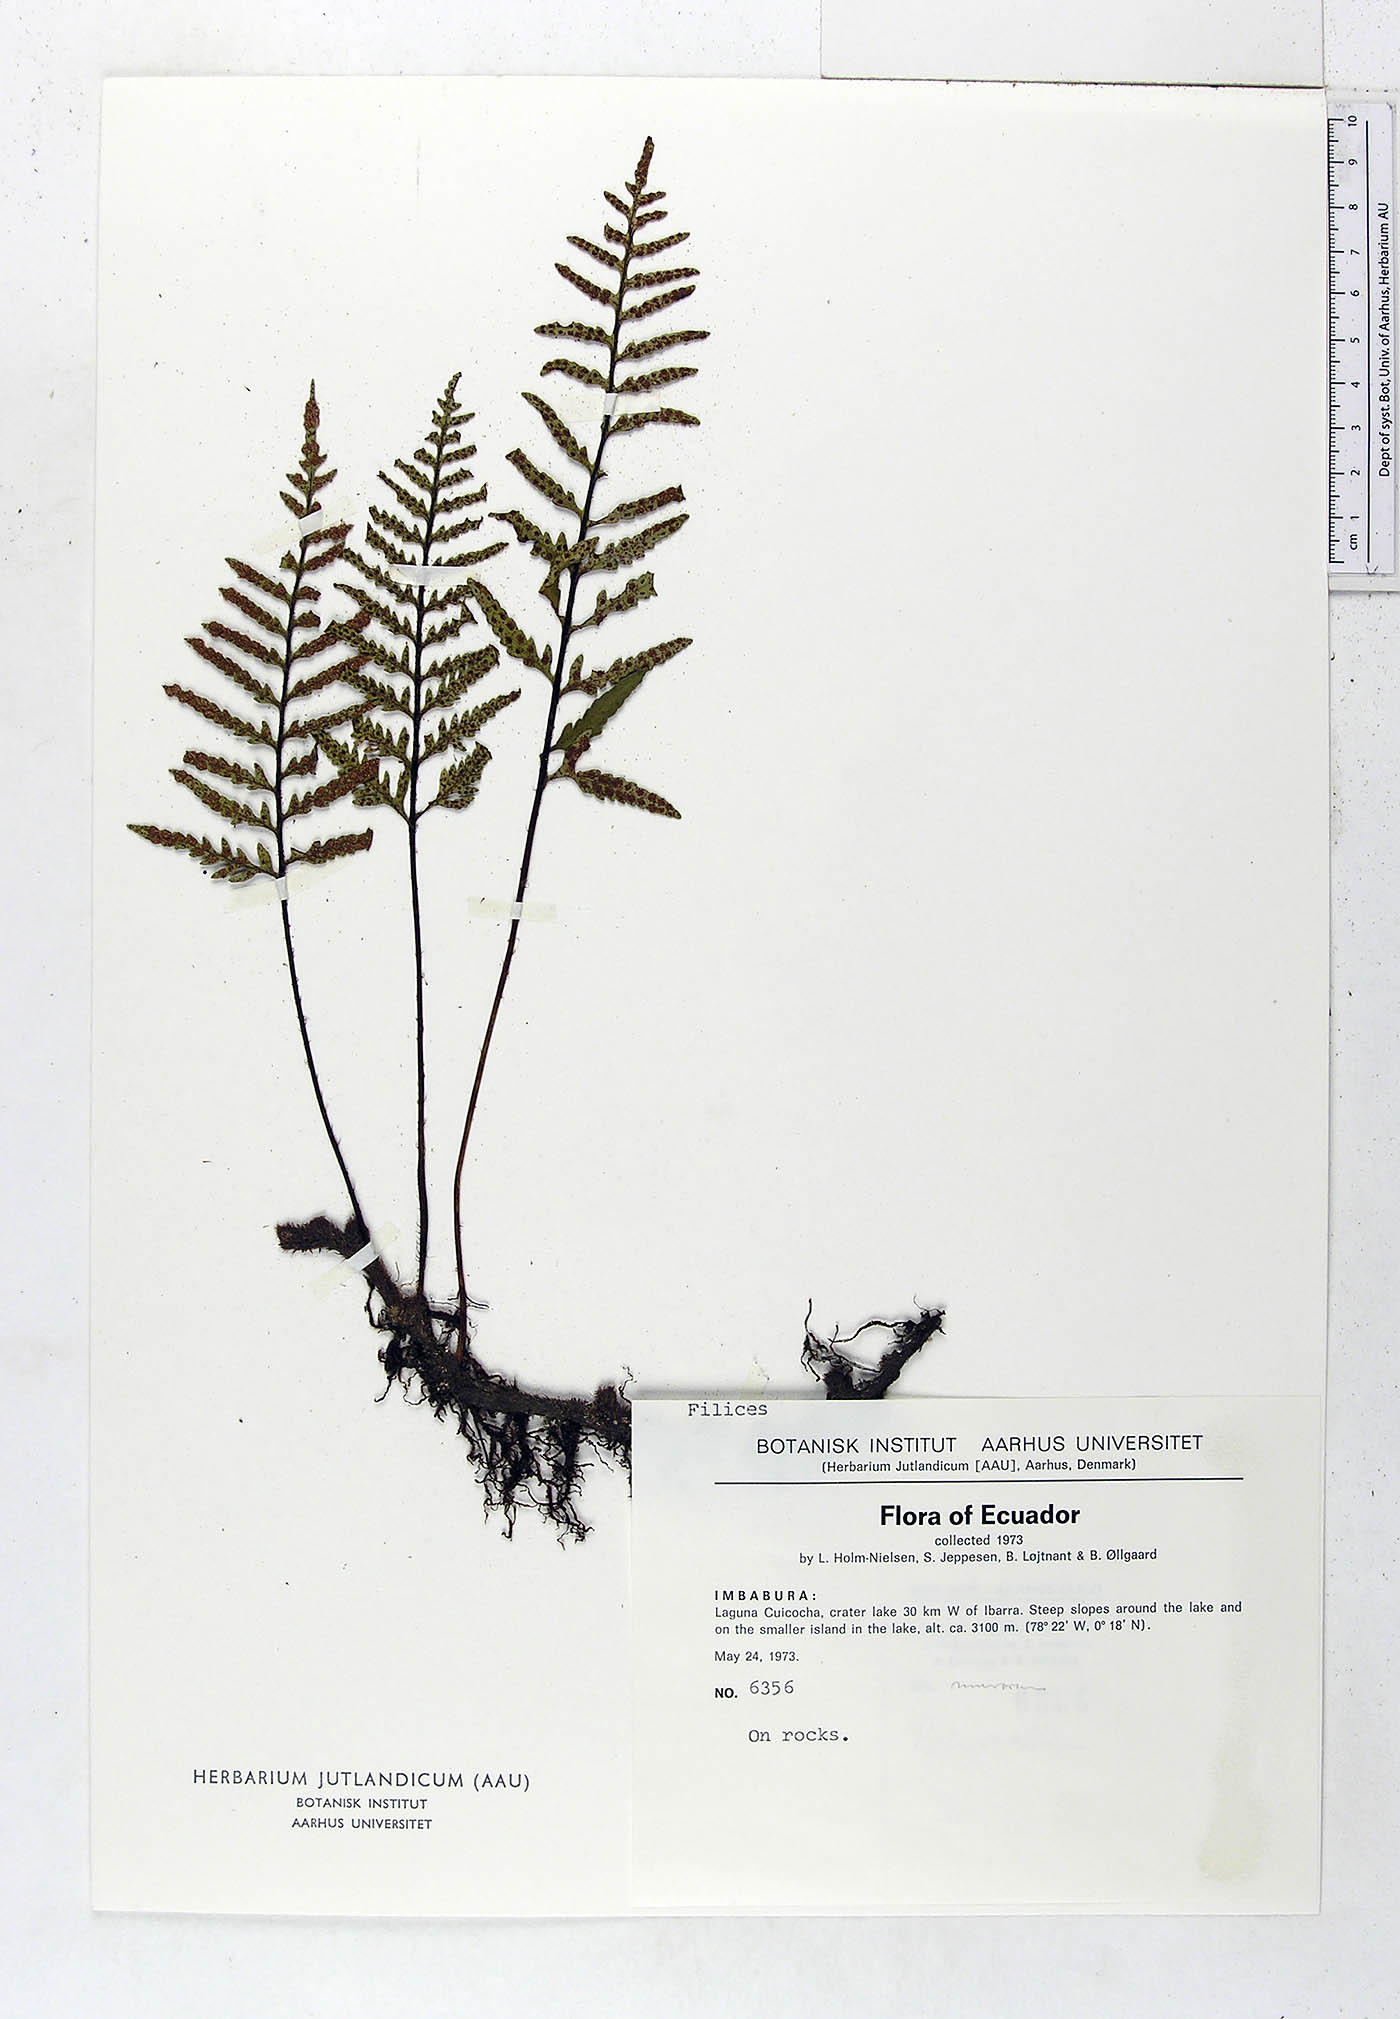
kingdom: Plantae
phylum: Tracheophyta
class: Polypodiopsida
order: Polypodiales
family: Polypodiaceae
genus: Pleopeltis
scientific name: Pleopeltis murora
